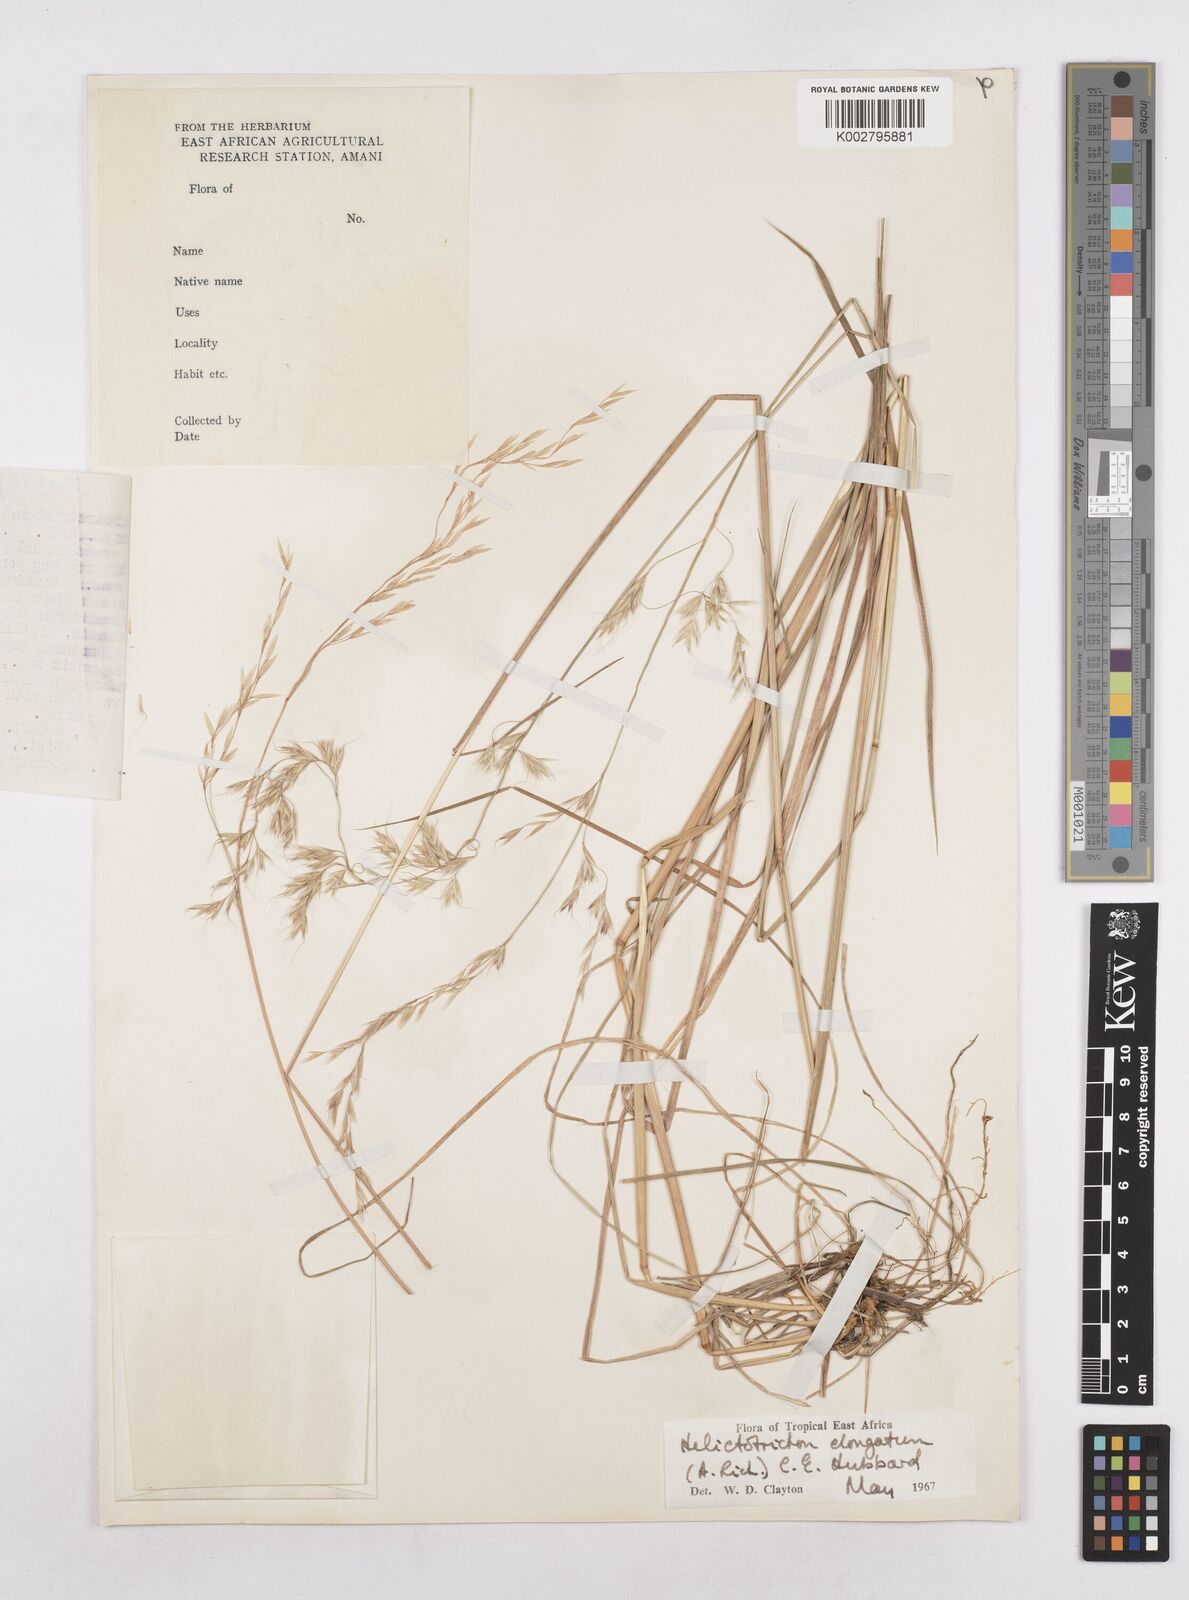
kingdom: Plantae
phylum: Tracheophyta
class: Liliopsida
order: Poales
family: Poaceae
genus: Trisetopsis
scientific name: Trisetopsis elongata
